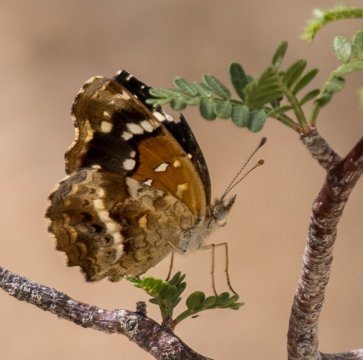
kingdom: Animalia
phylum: Arthropoda
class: Insecta
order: Lepidoptera
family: Nymphalidae
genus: Anthanassa
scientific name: Anthanassa texana
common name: Texan Crescent
